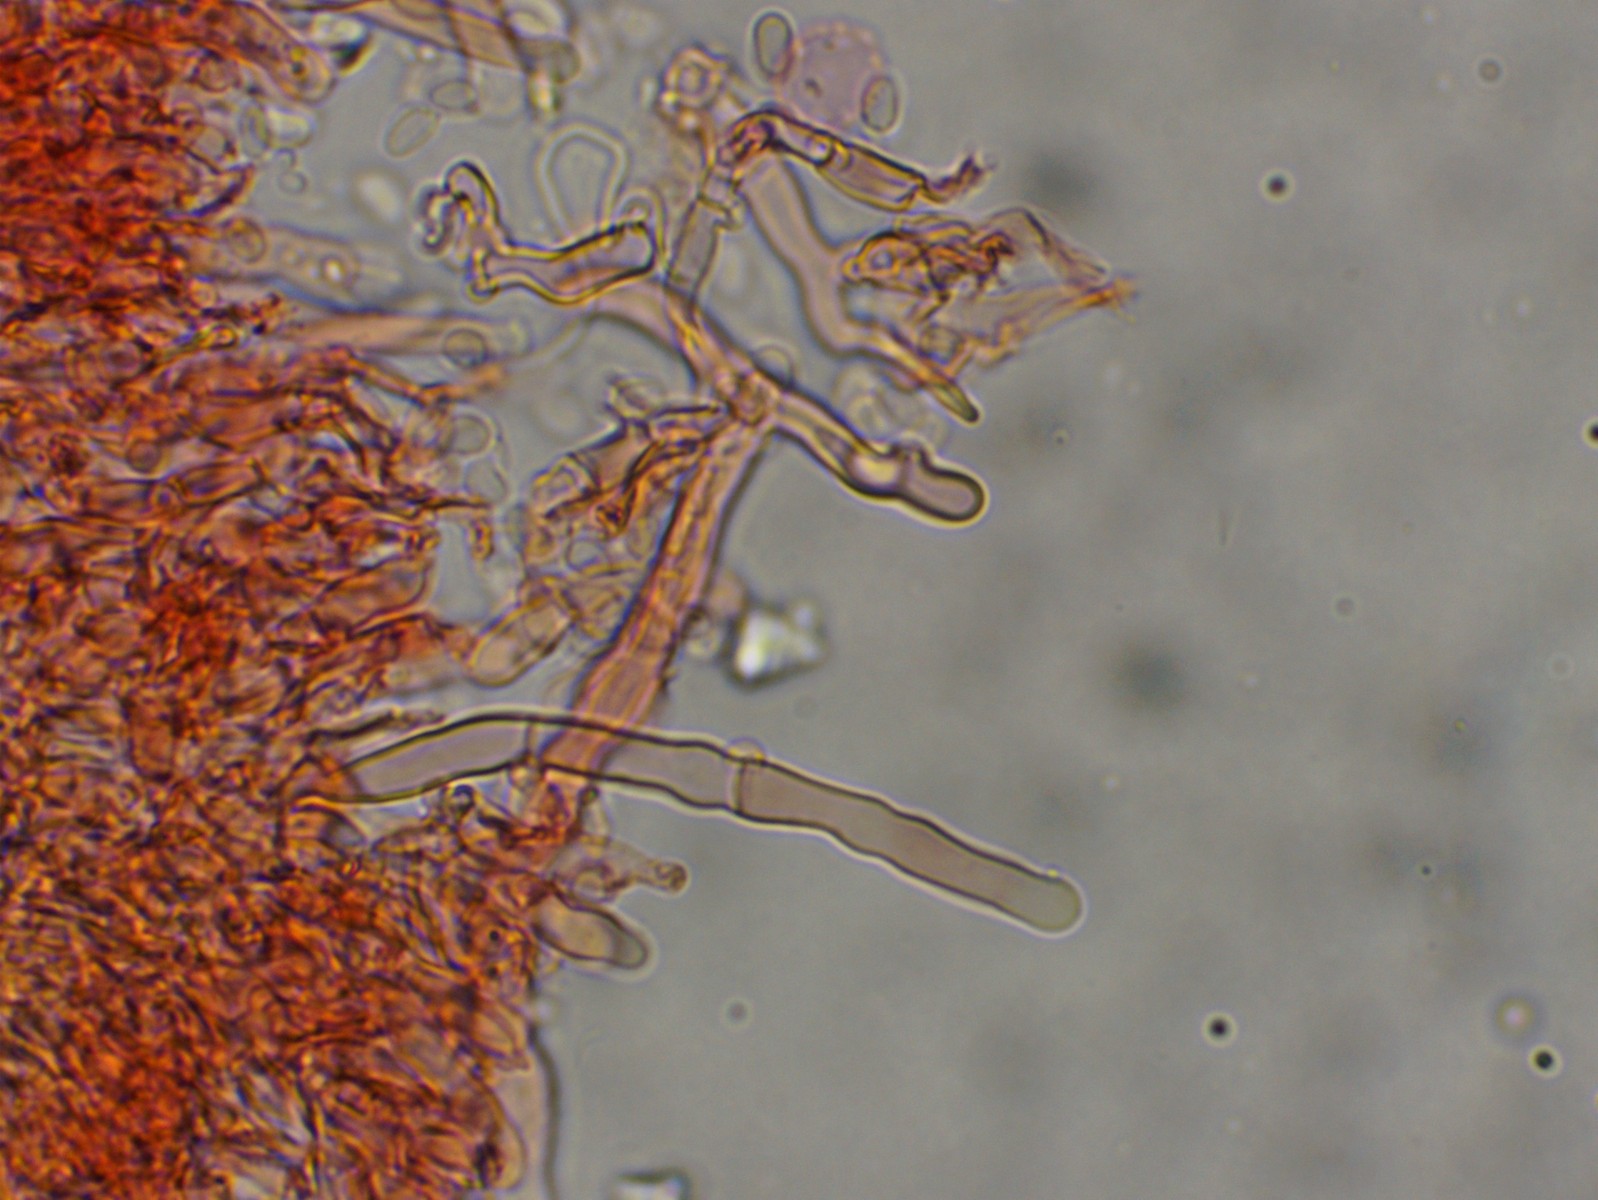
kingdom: Fungi
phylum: Basidiomycota
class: Agaricomycetes
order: Hymenochaetales
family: Hyphodontiaceae
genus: Hyphodontia
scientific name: Hyphodontia alutaria
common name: flaskerenser-nålehinde
